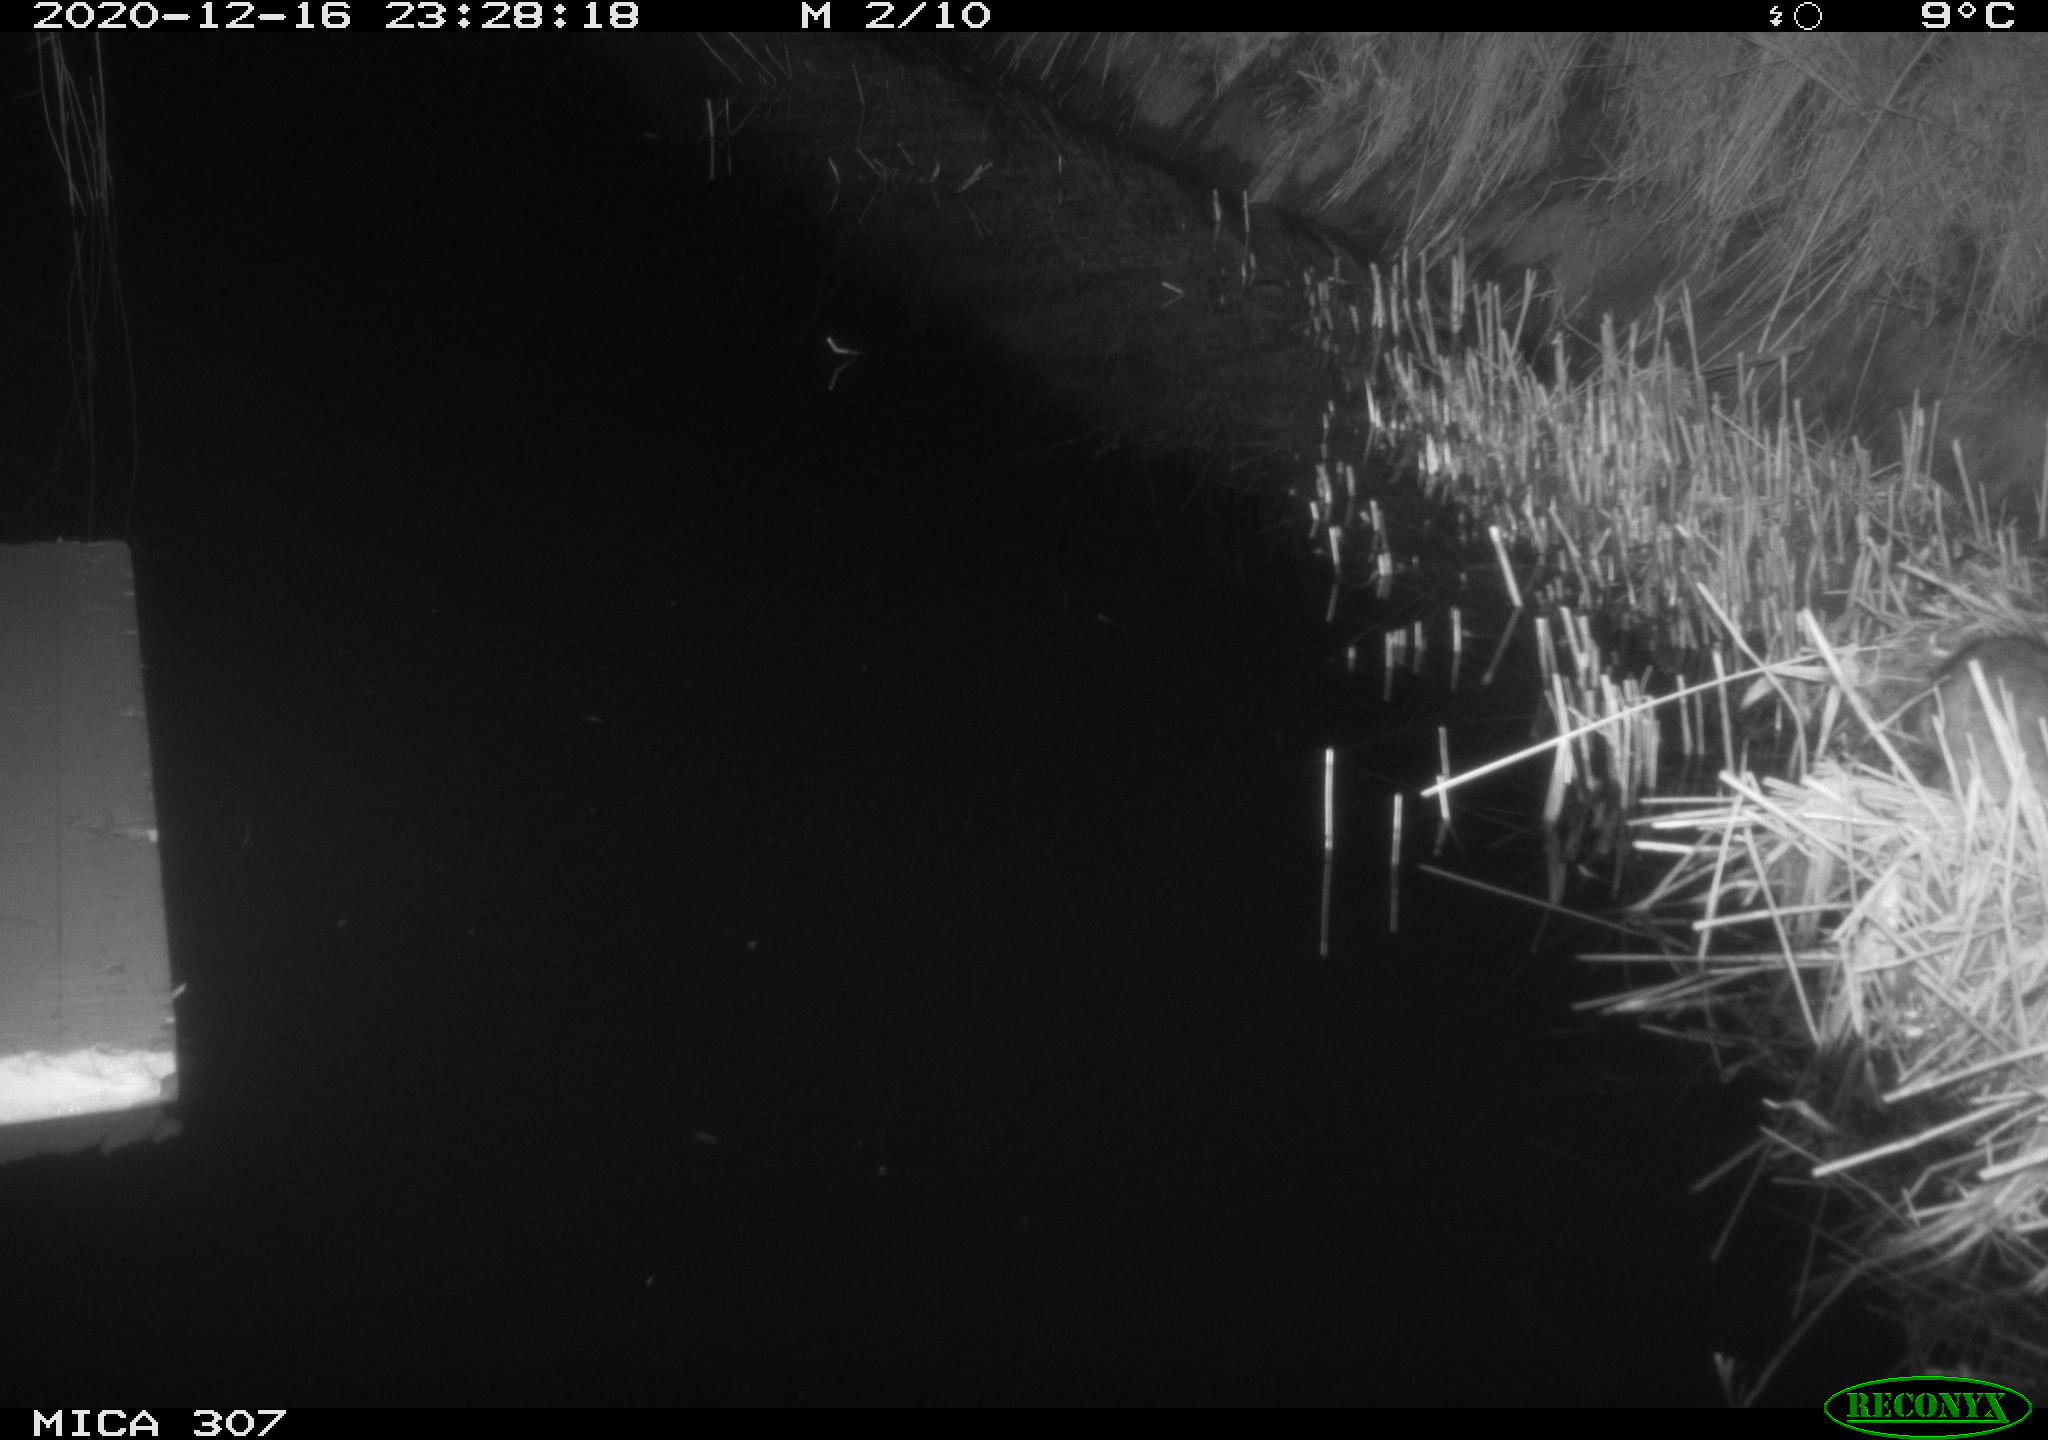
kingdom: Animalia
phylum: Chordata
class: Mammalia
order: Rodentia
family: Muridae
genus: Rattus
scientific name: Rattus norvegicus
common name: Brown rat
